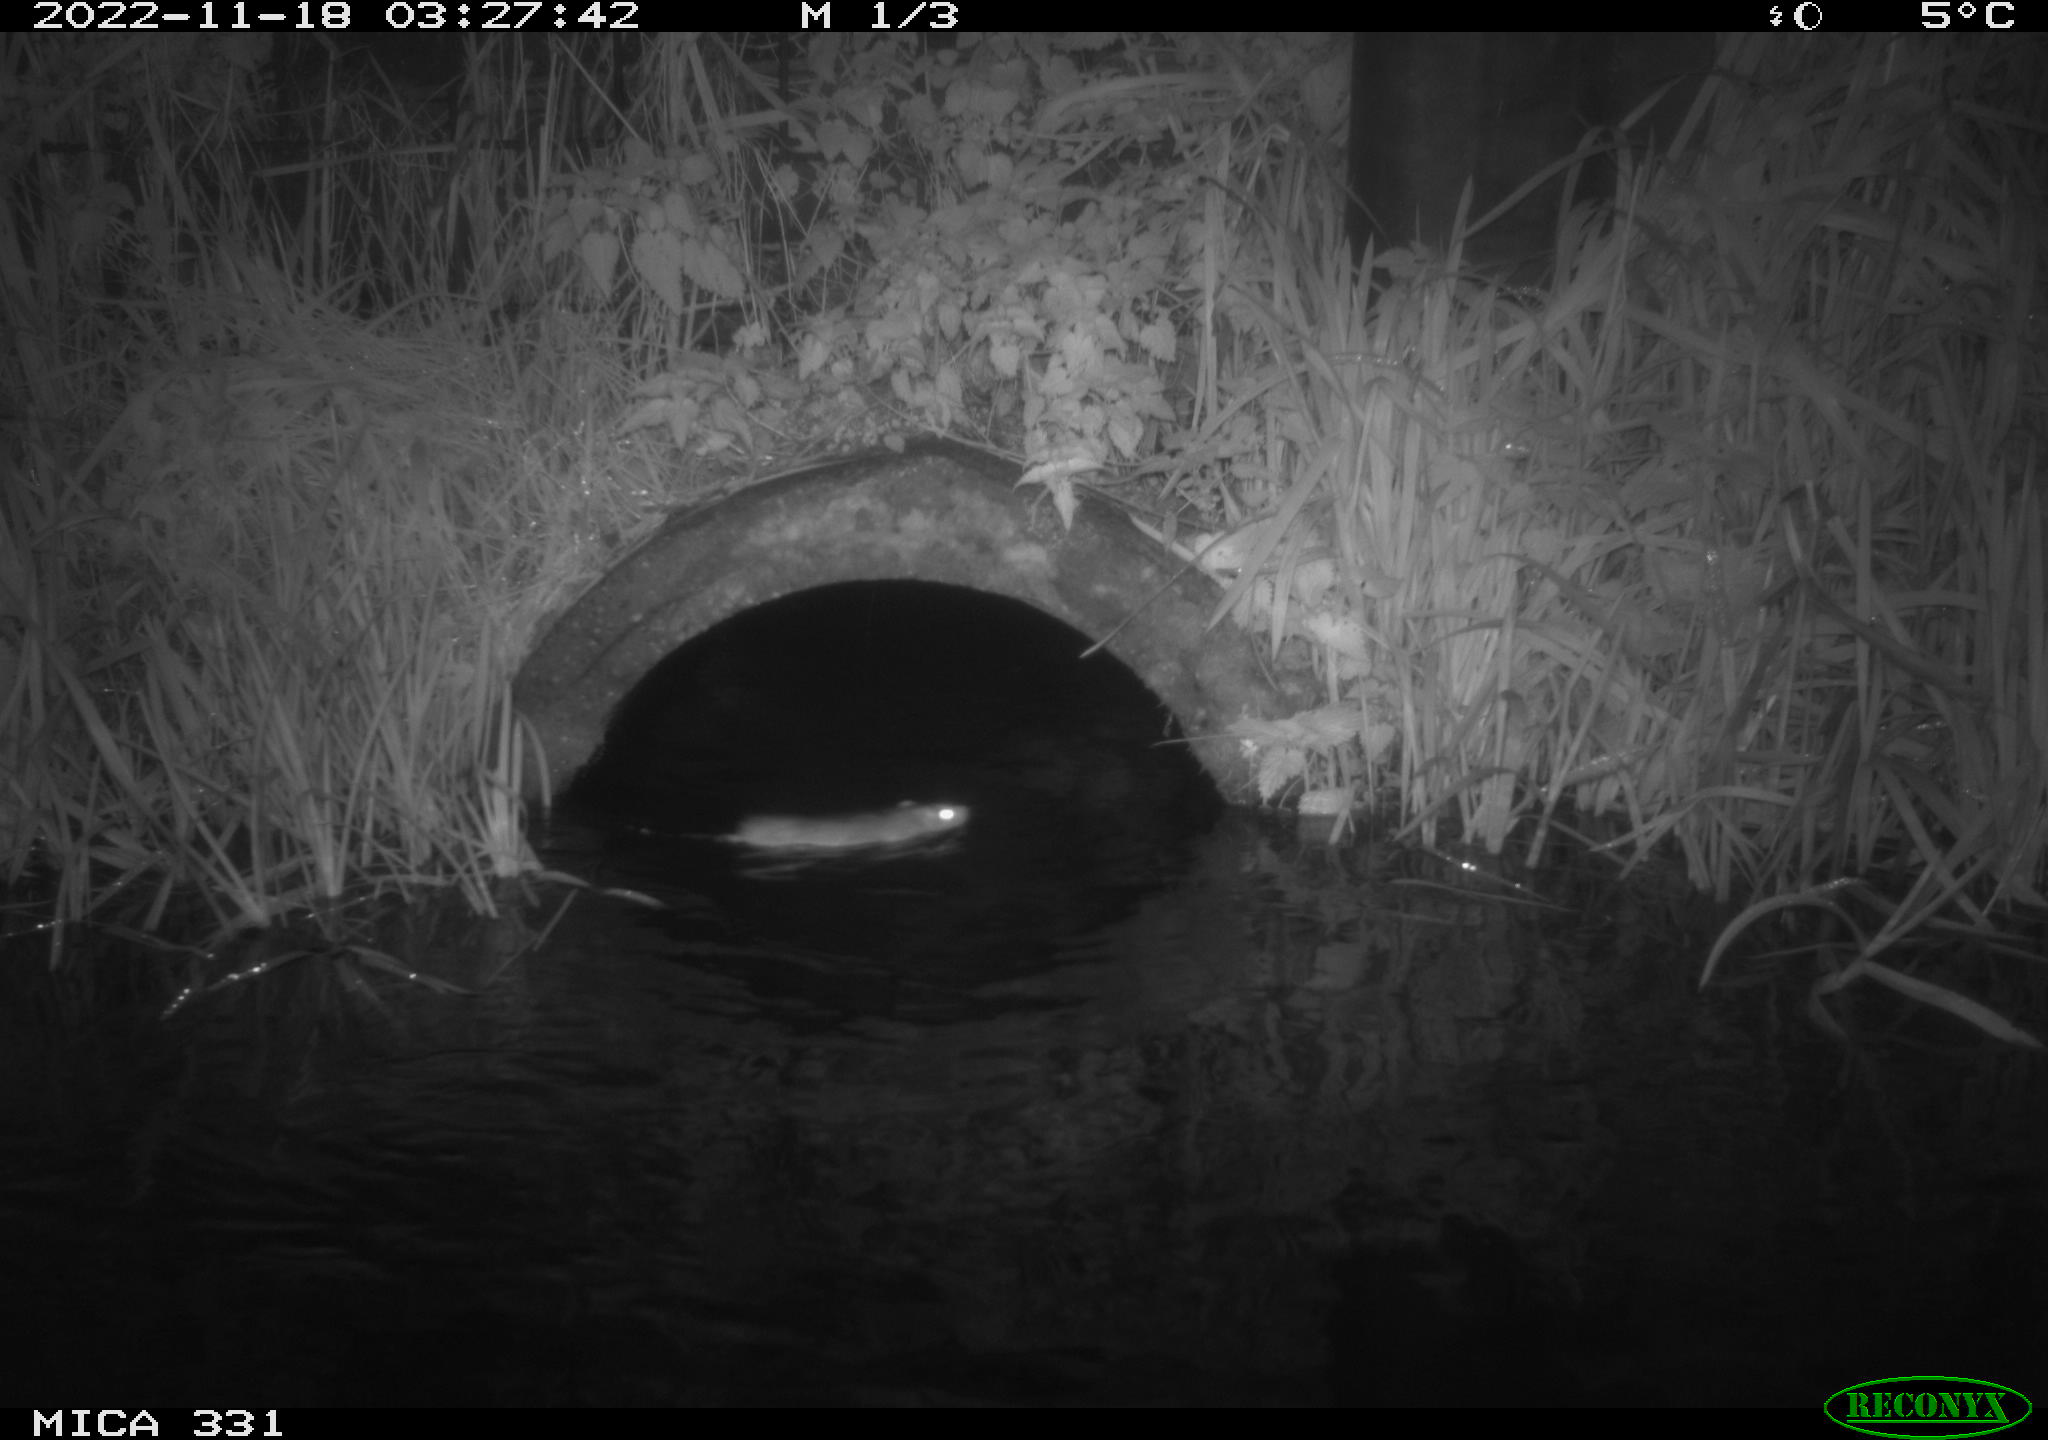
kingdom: Animalia
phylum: Chordata
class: Mammalia
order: Rodentia
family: Muridae
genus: Rattus
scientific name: Rattus norvegicus
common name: Brown rat
